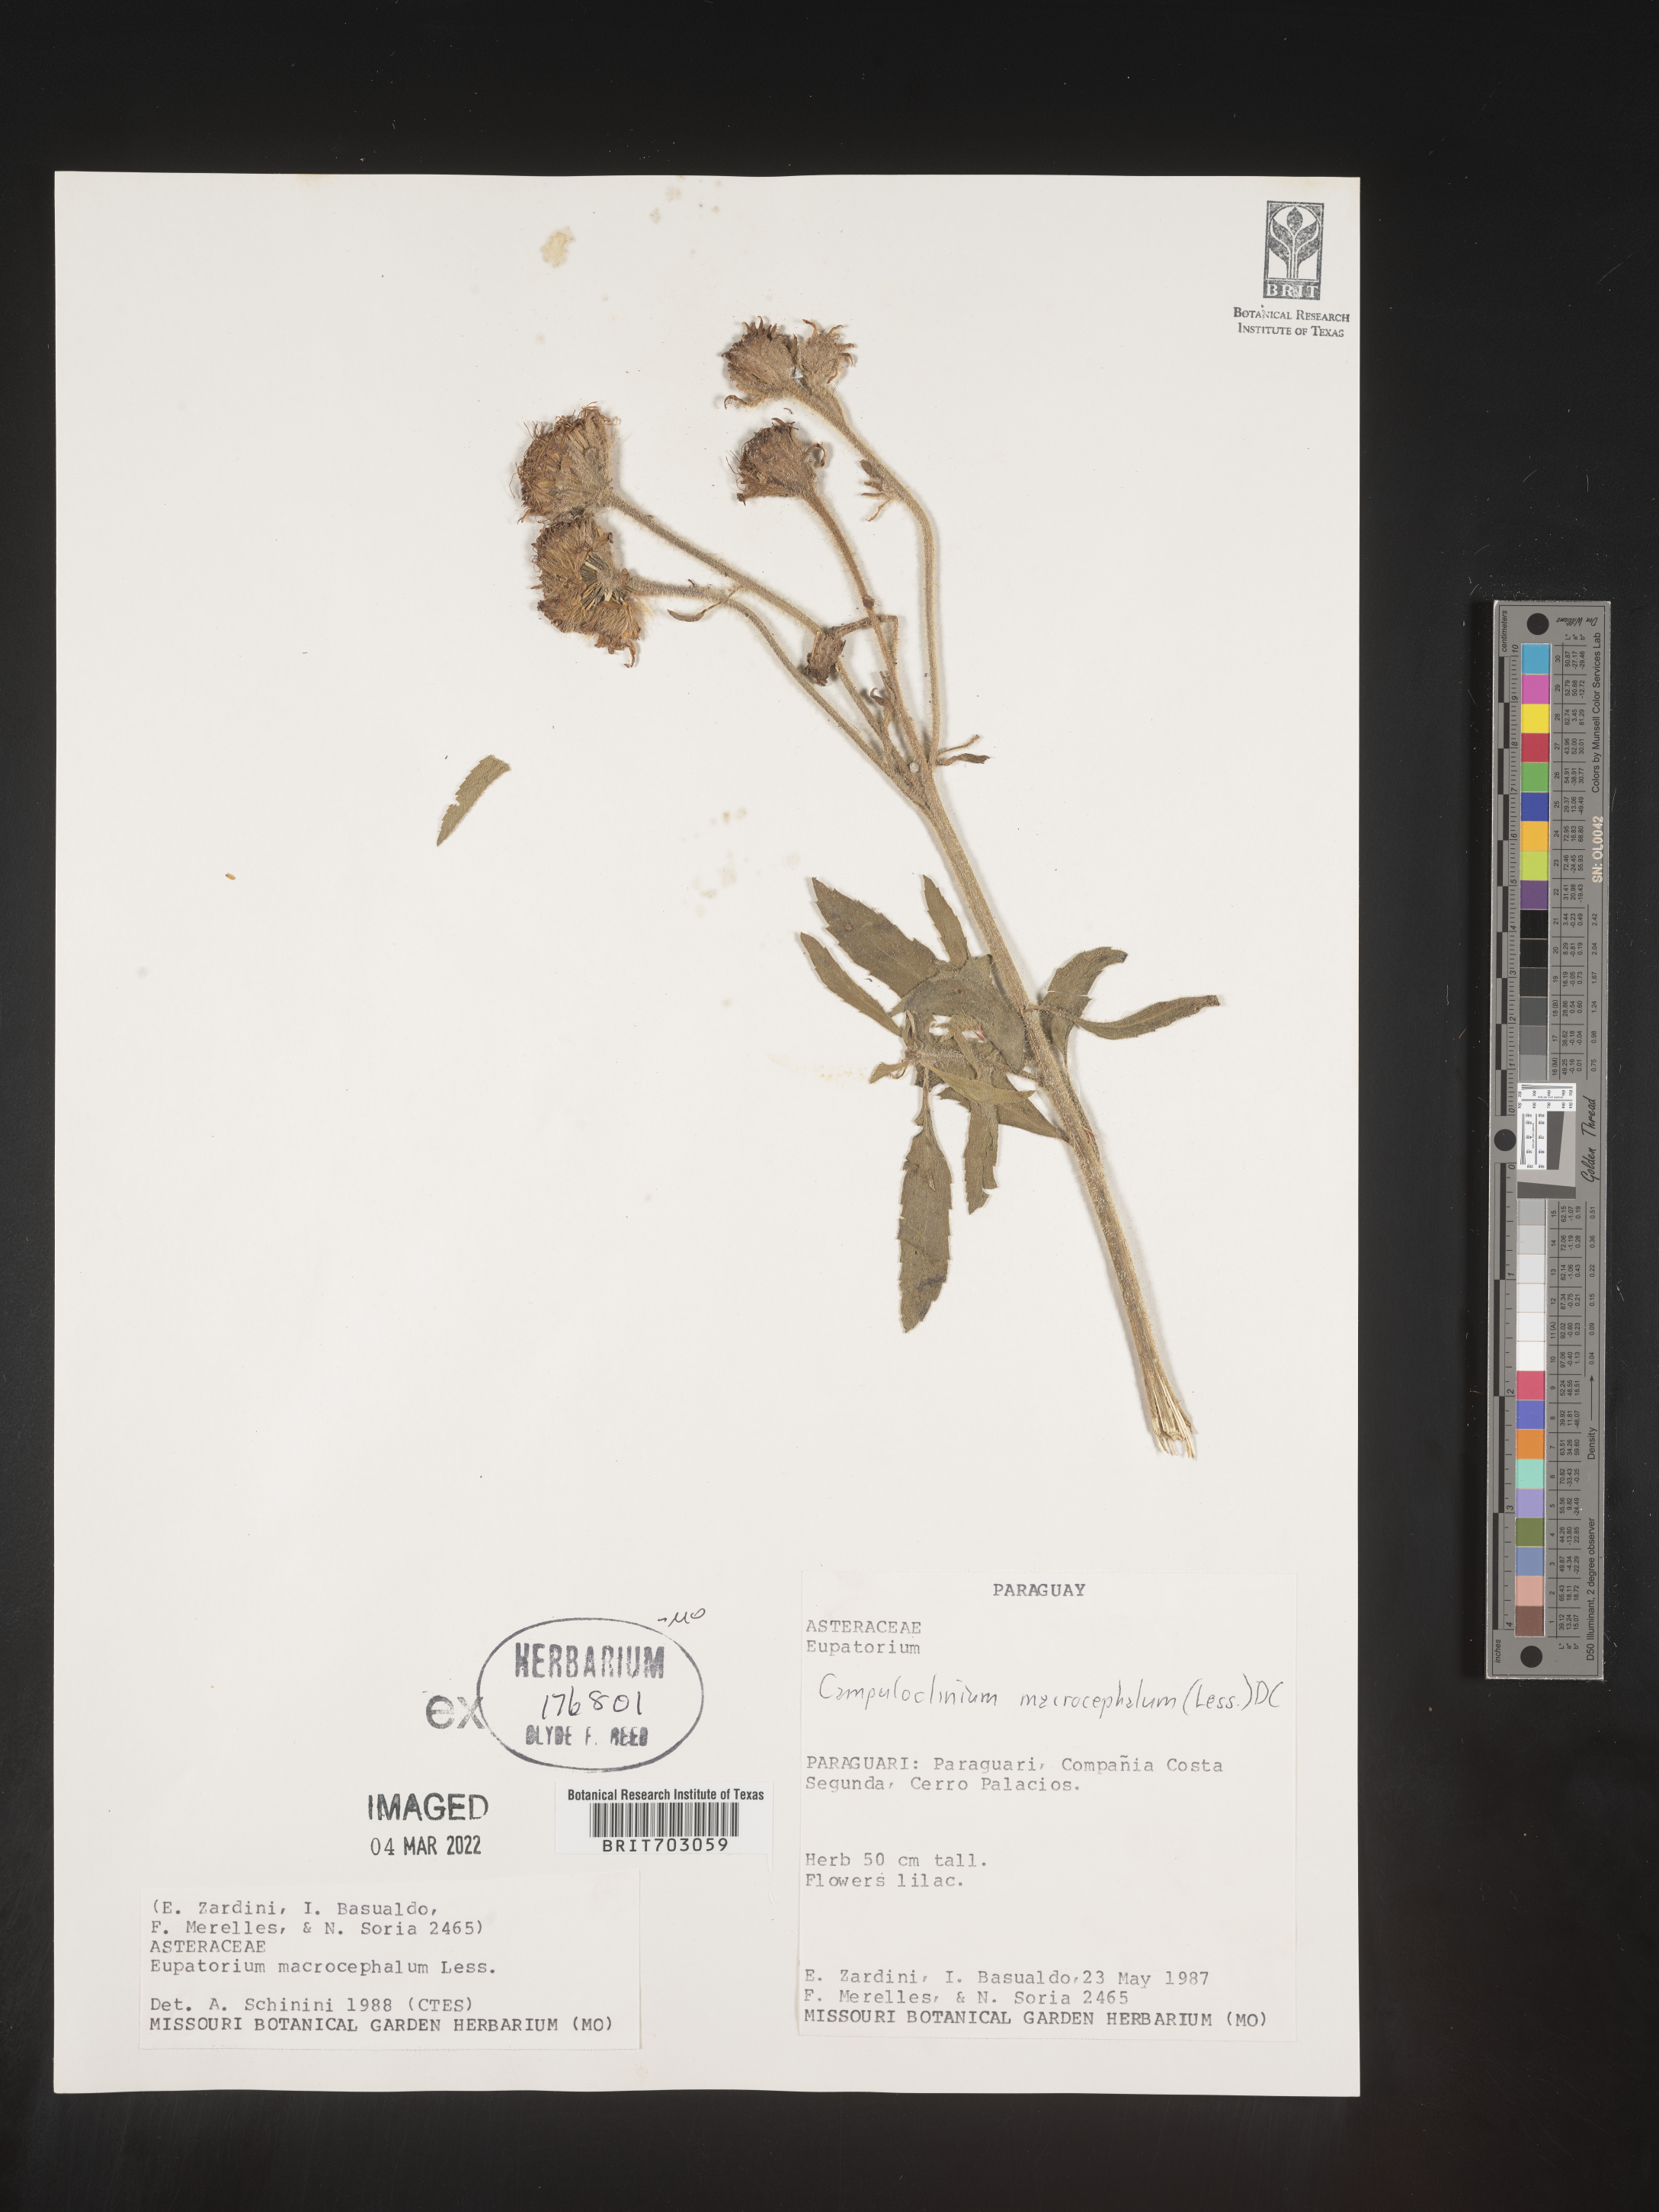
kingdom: Plantae
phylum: Tracheophyta
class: Magnoliopsida
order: Asterales
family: Asteraceae
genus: Eupatorium
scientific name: Eupatorium
